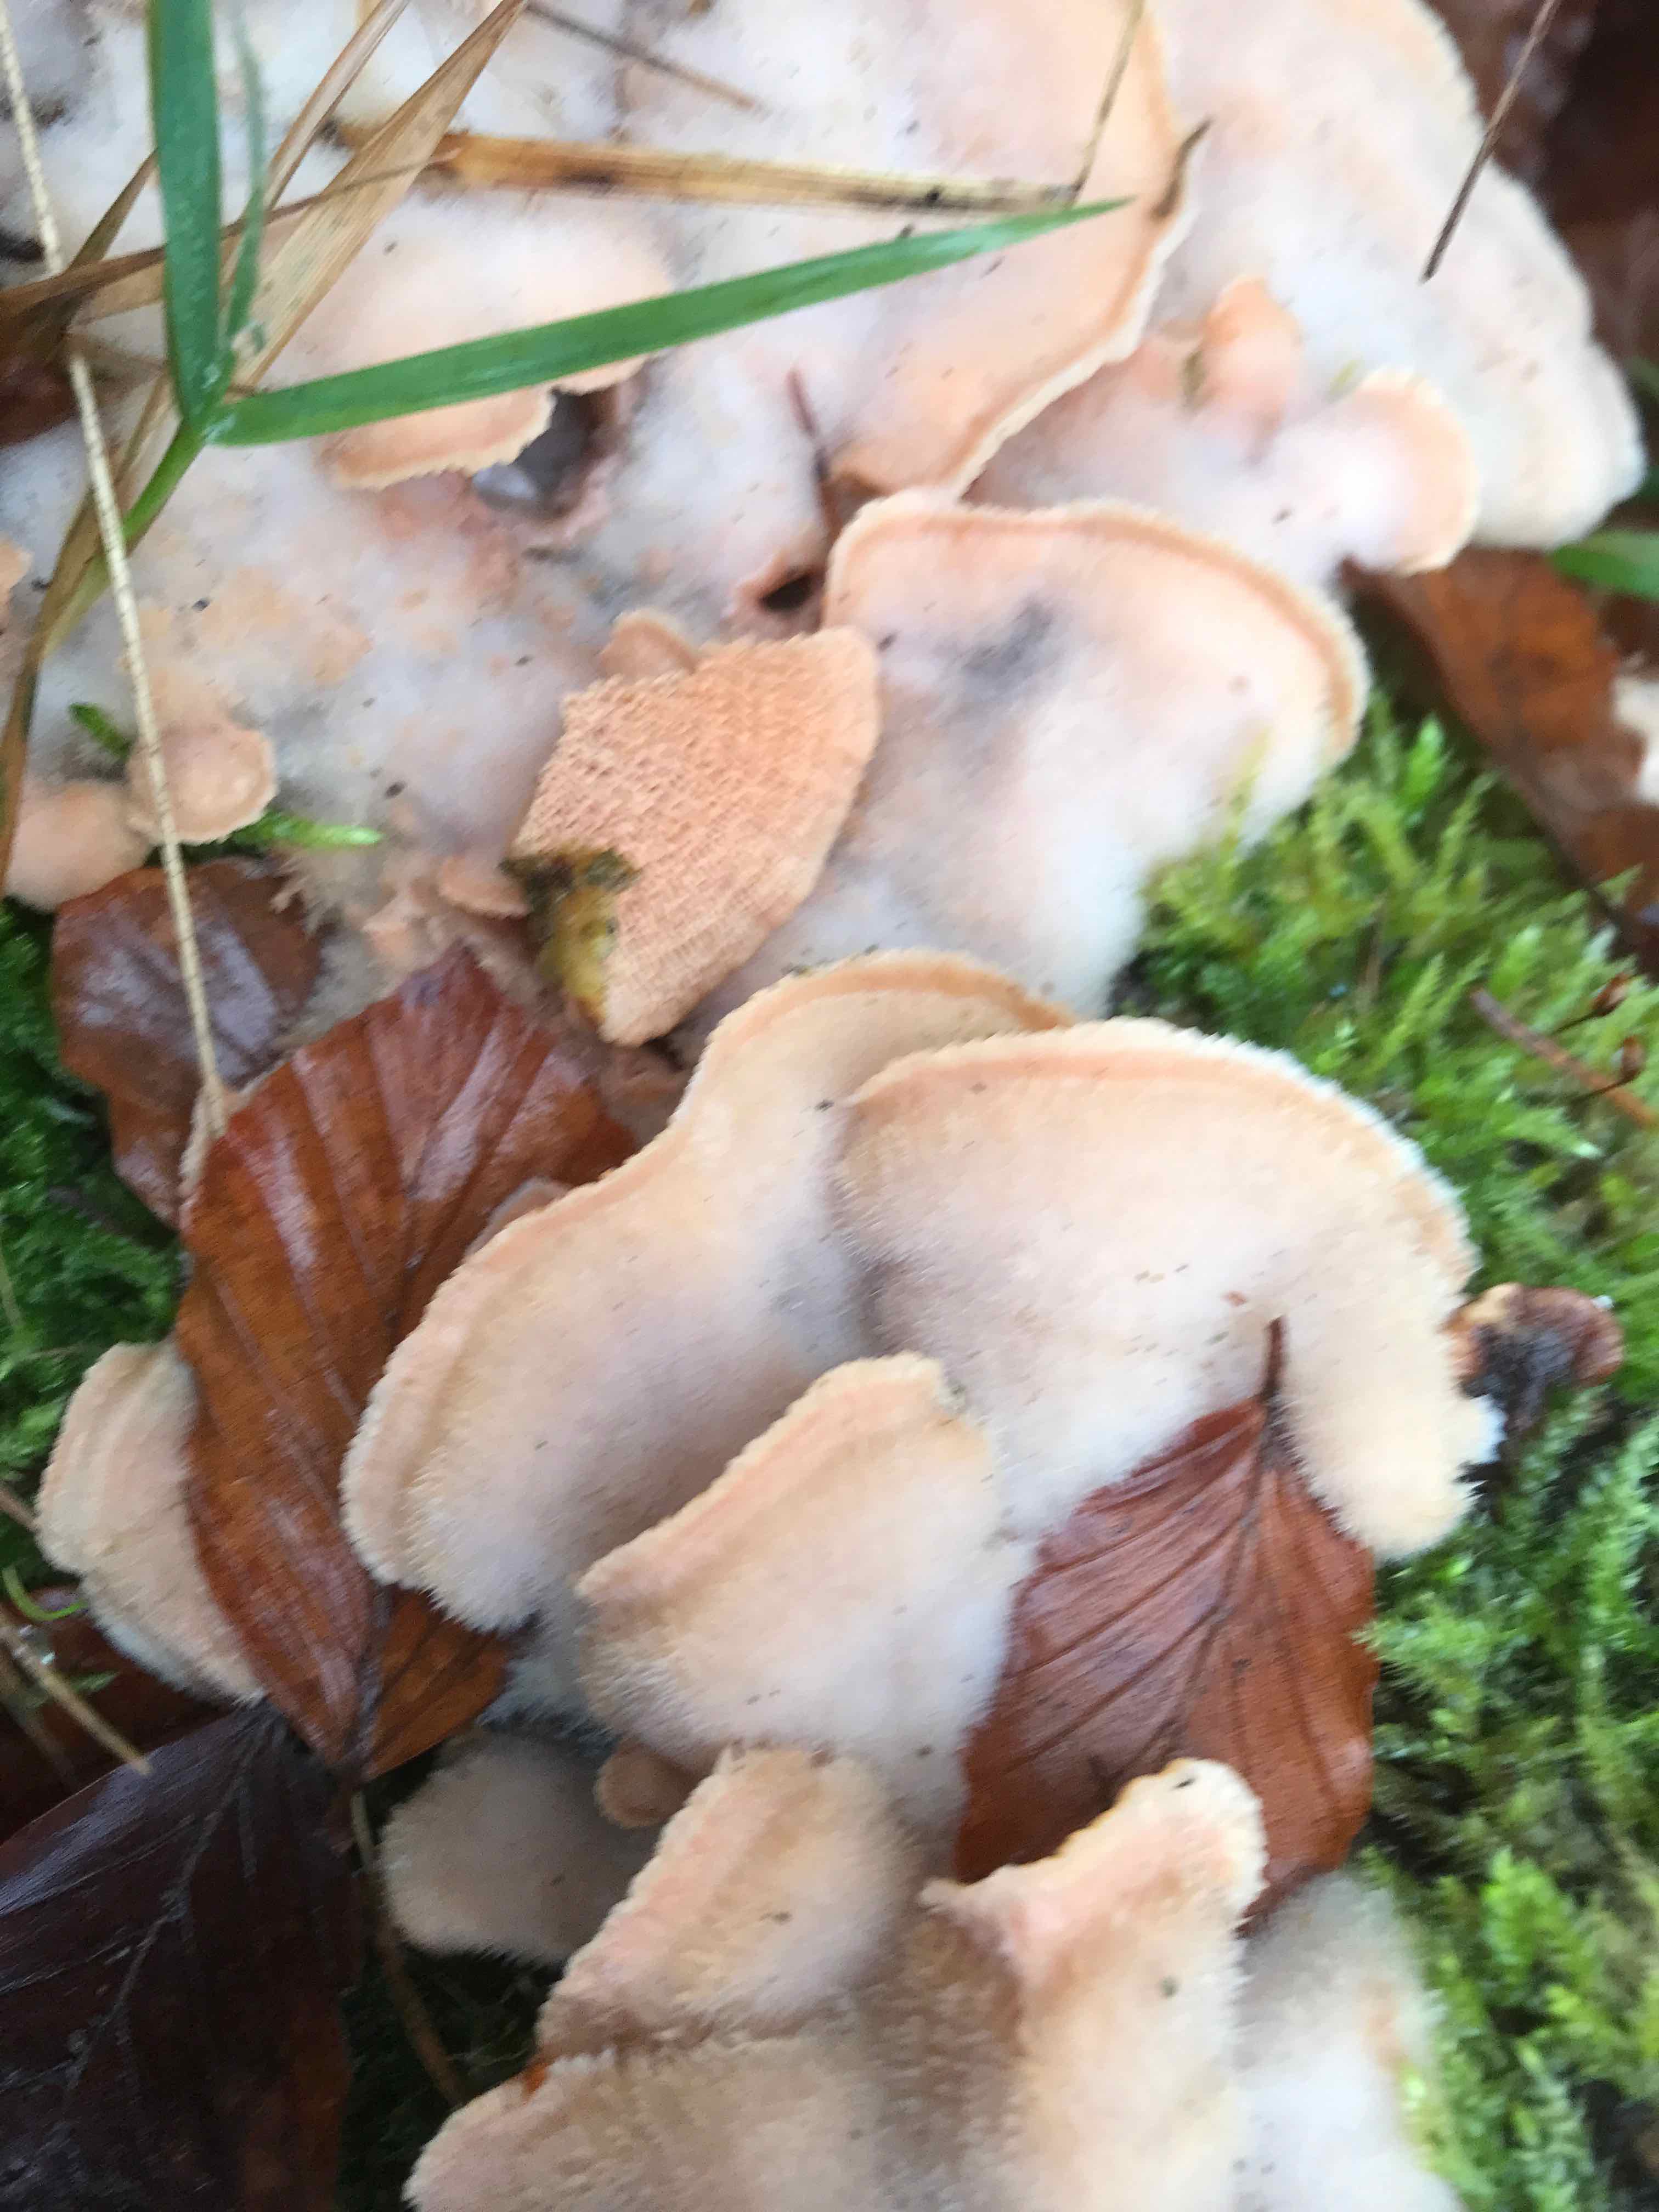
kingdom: Fungi
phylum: Basidiomycota
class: Agaricomycetes
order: Polyporales
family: Meruliaceae
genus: Phlebia
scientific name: Phlebia tremellosa
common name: bævrende åresvamp
